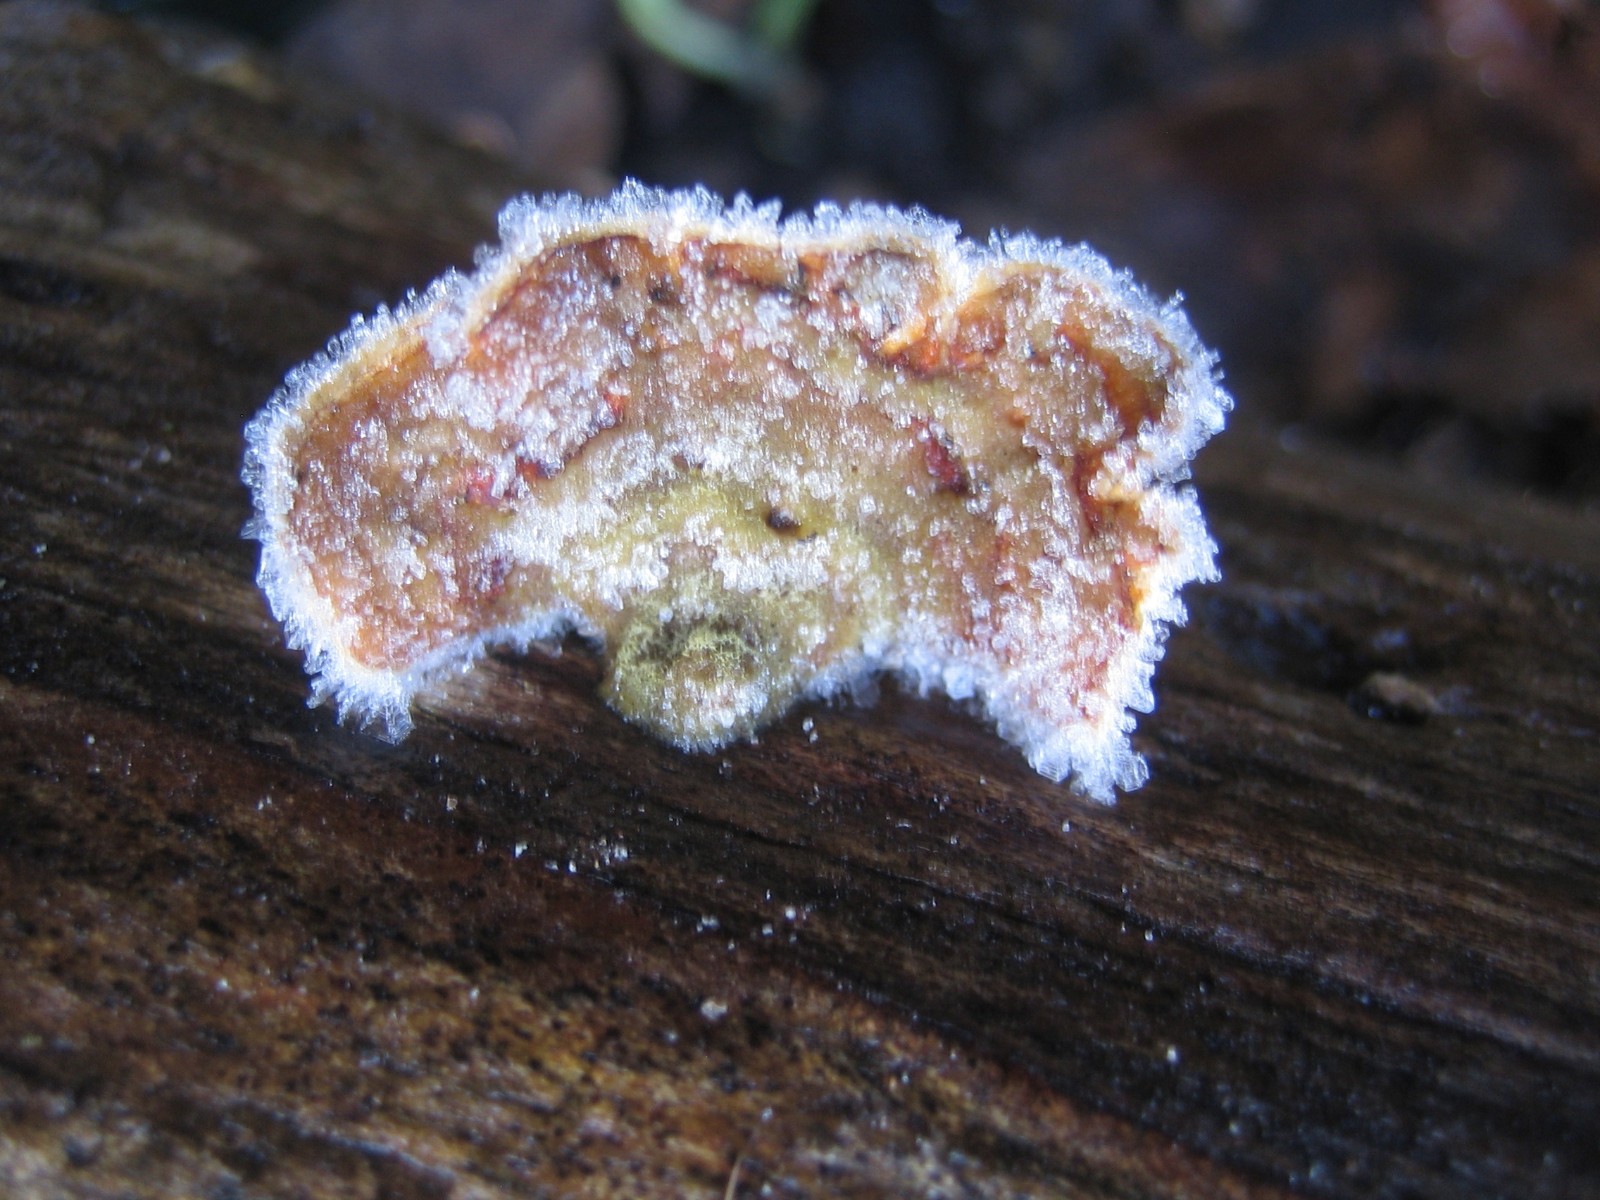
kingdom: Fungi
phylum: Basidiomycota
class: Agaricomycetes
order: Russulales
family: Stereaceae
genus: Stereum
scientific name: Stereum hirsutum
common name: håret lædersvamp
